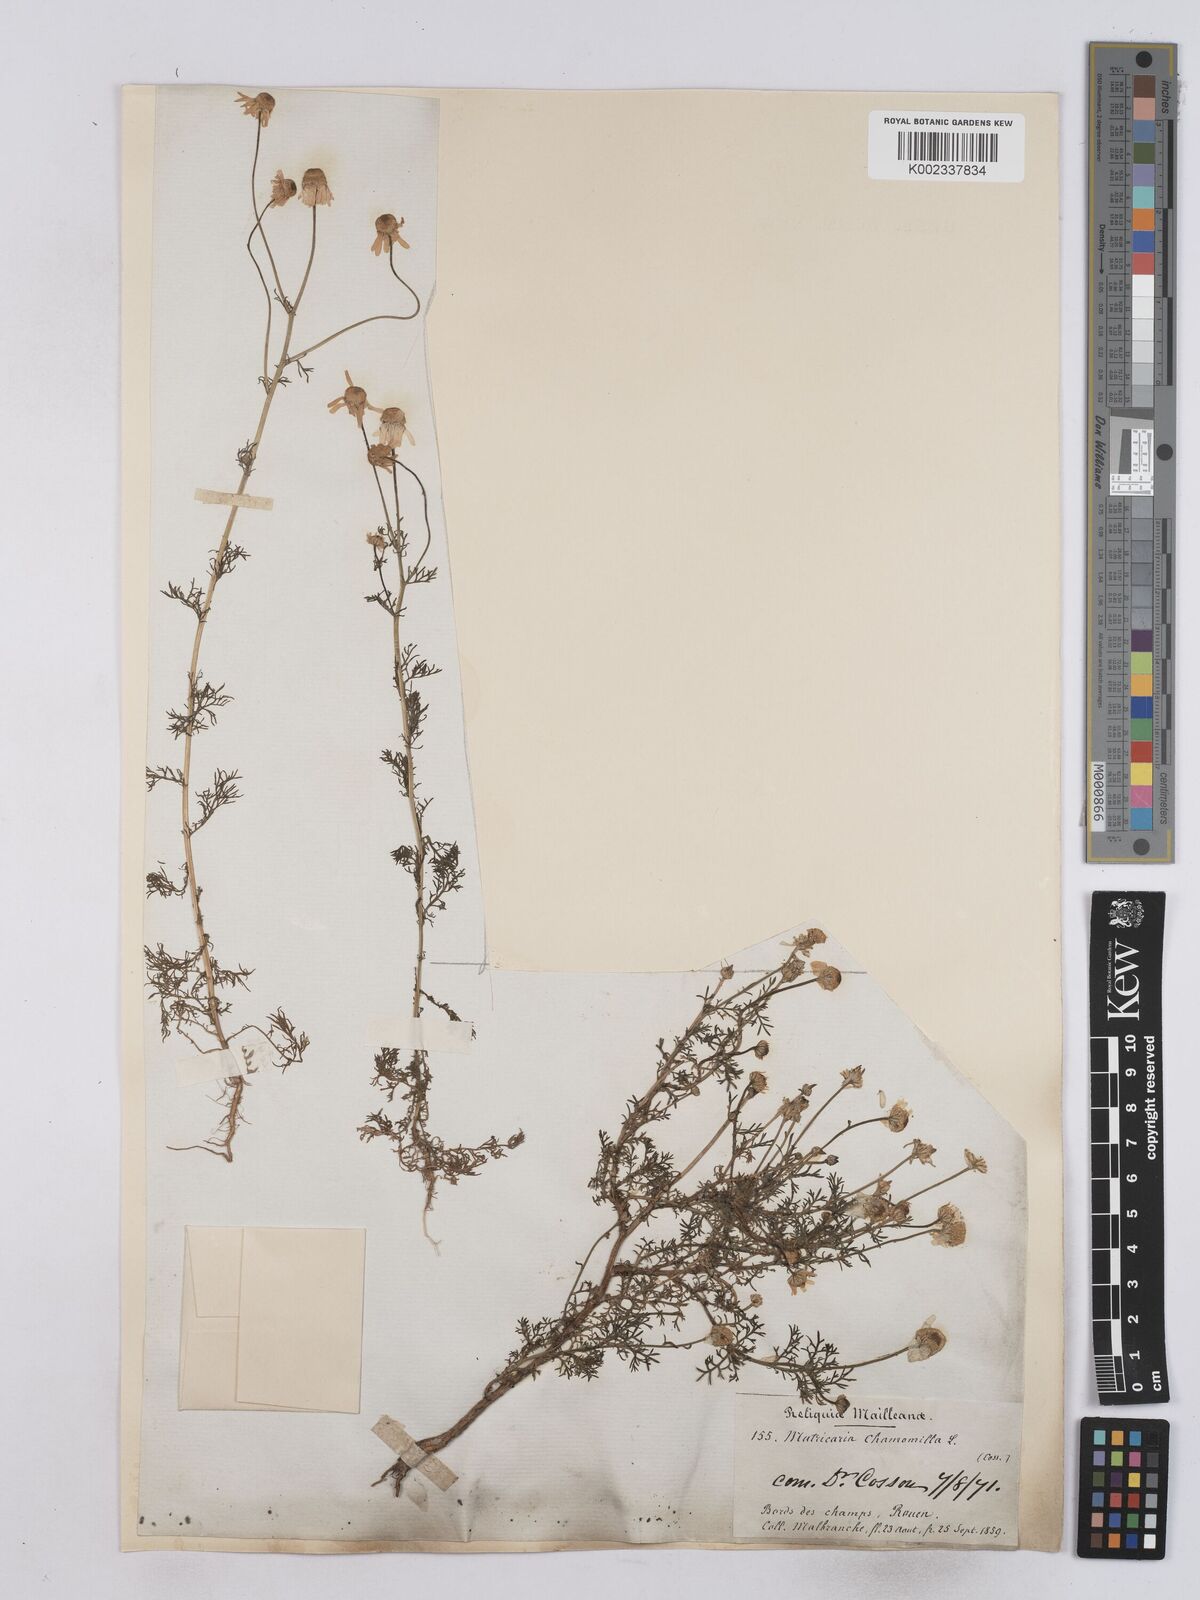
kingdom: Plantae
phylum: Tracheophyta
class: Magnoliopsida
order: Asterales
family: Asteraceae
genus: Matricaria
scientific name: Matricaria chamomilla
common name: Scented mayweed
